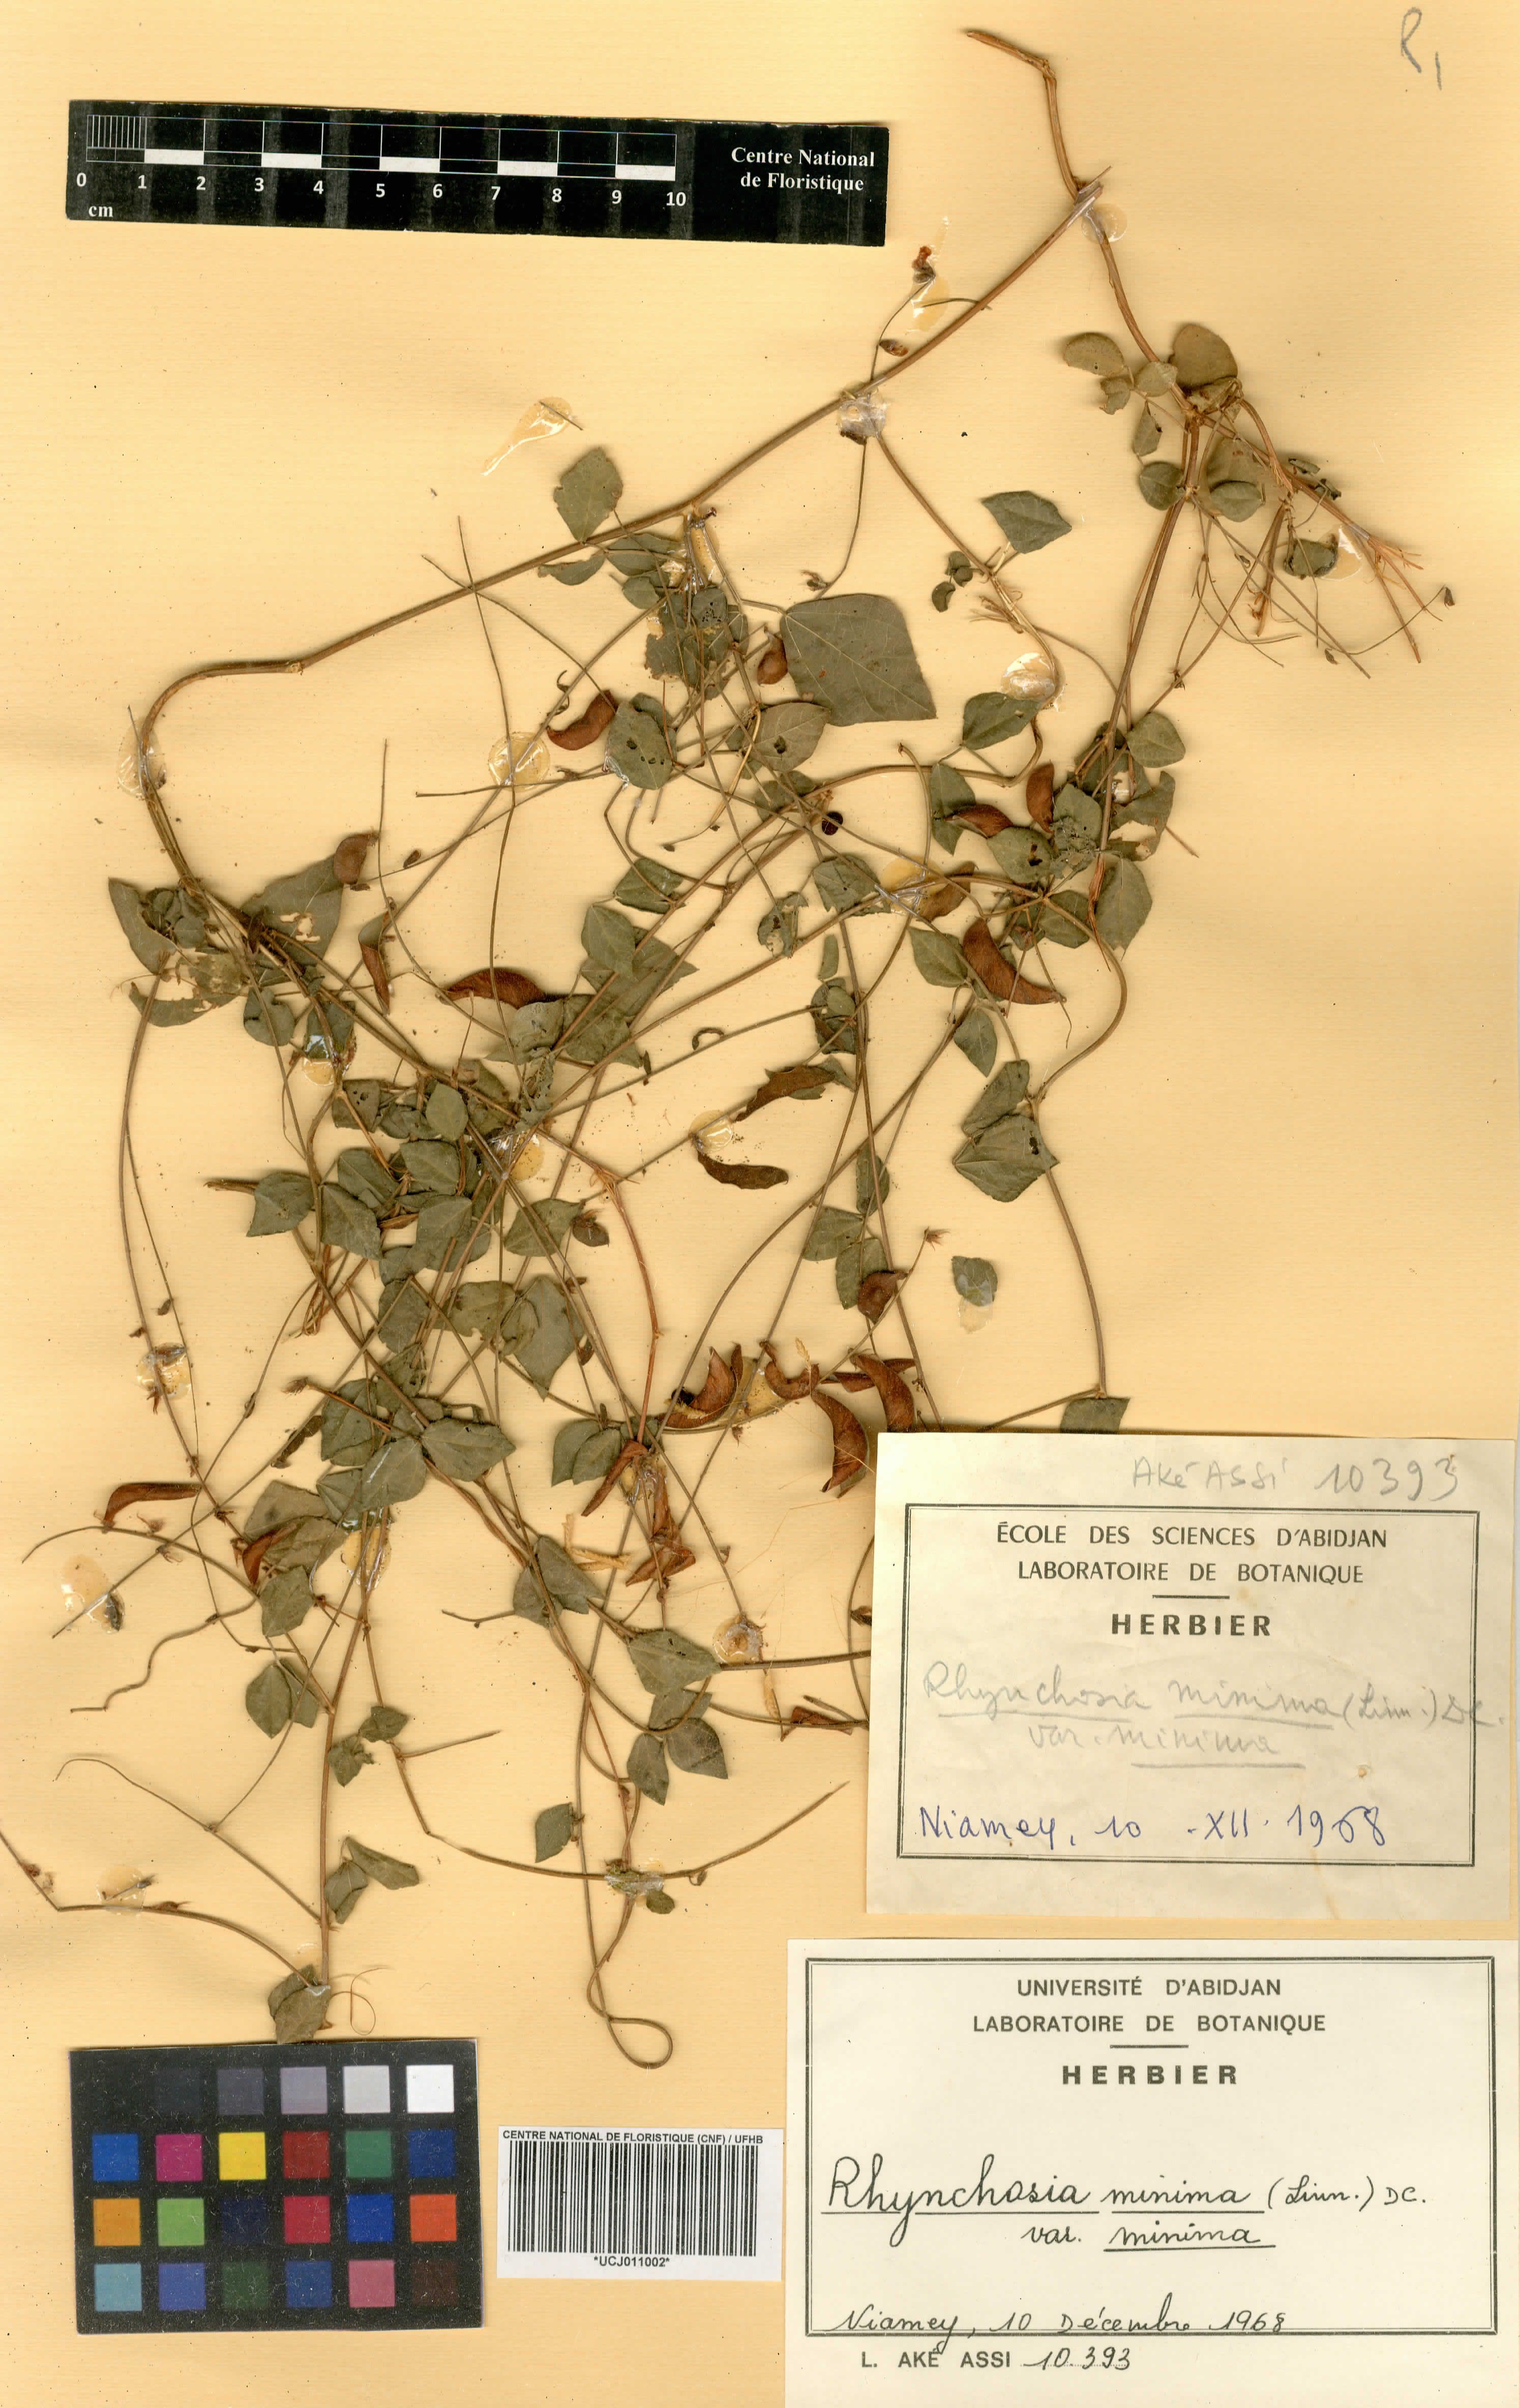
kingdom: Plantae
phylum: Tracheophyta
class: Magnoliopsida
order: Fabales
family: Fabaceae
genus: Rhynchosia
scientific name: Rhynchosia minima
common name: Least snoutbean
